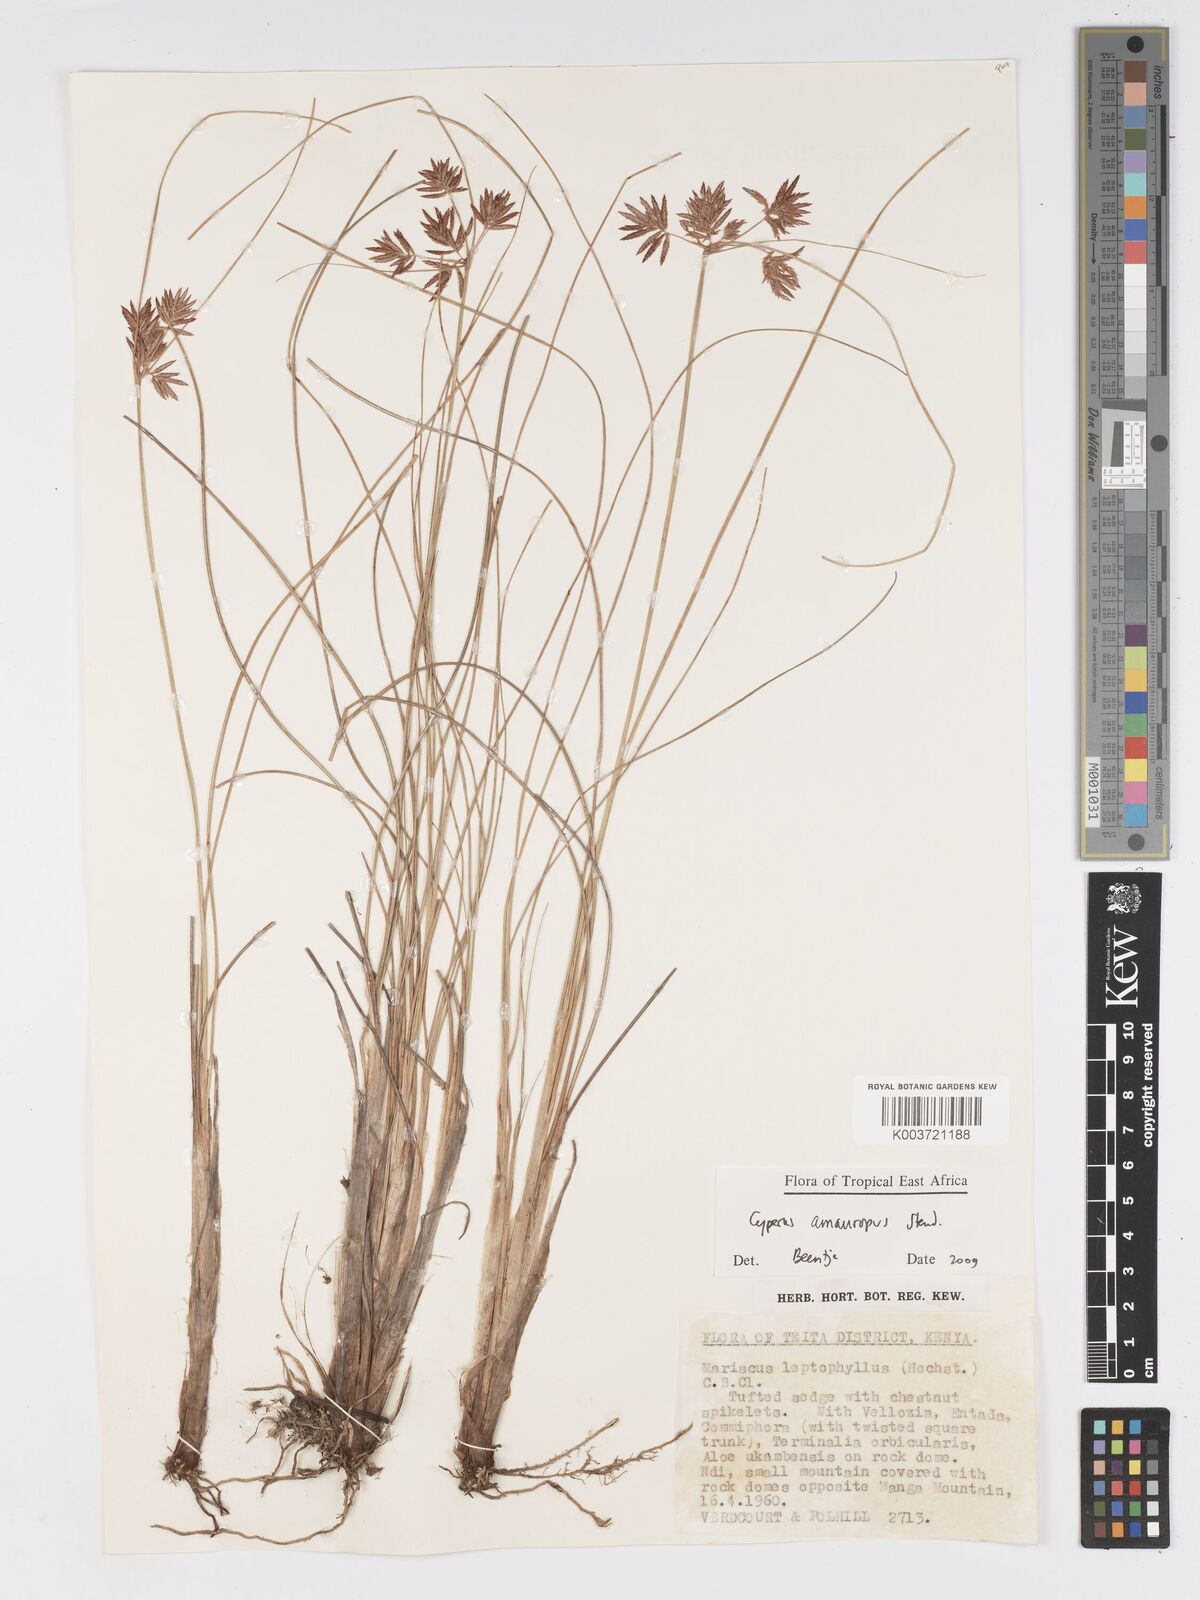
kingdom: Plantae
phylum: Tracheophyta
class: Liliopsida
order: Poales
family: Cyperaceae
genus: Cyperus
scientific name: Cyperus amauropus
